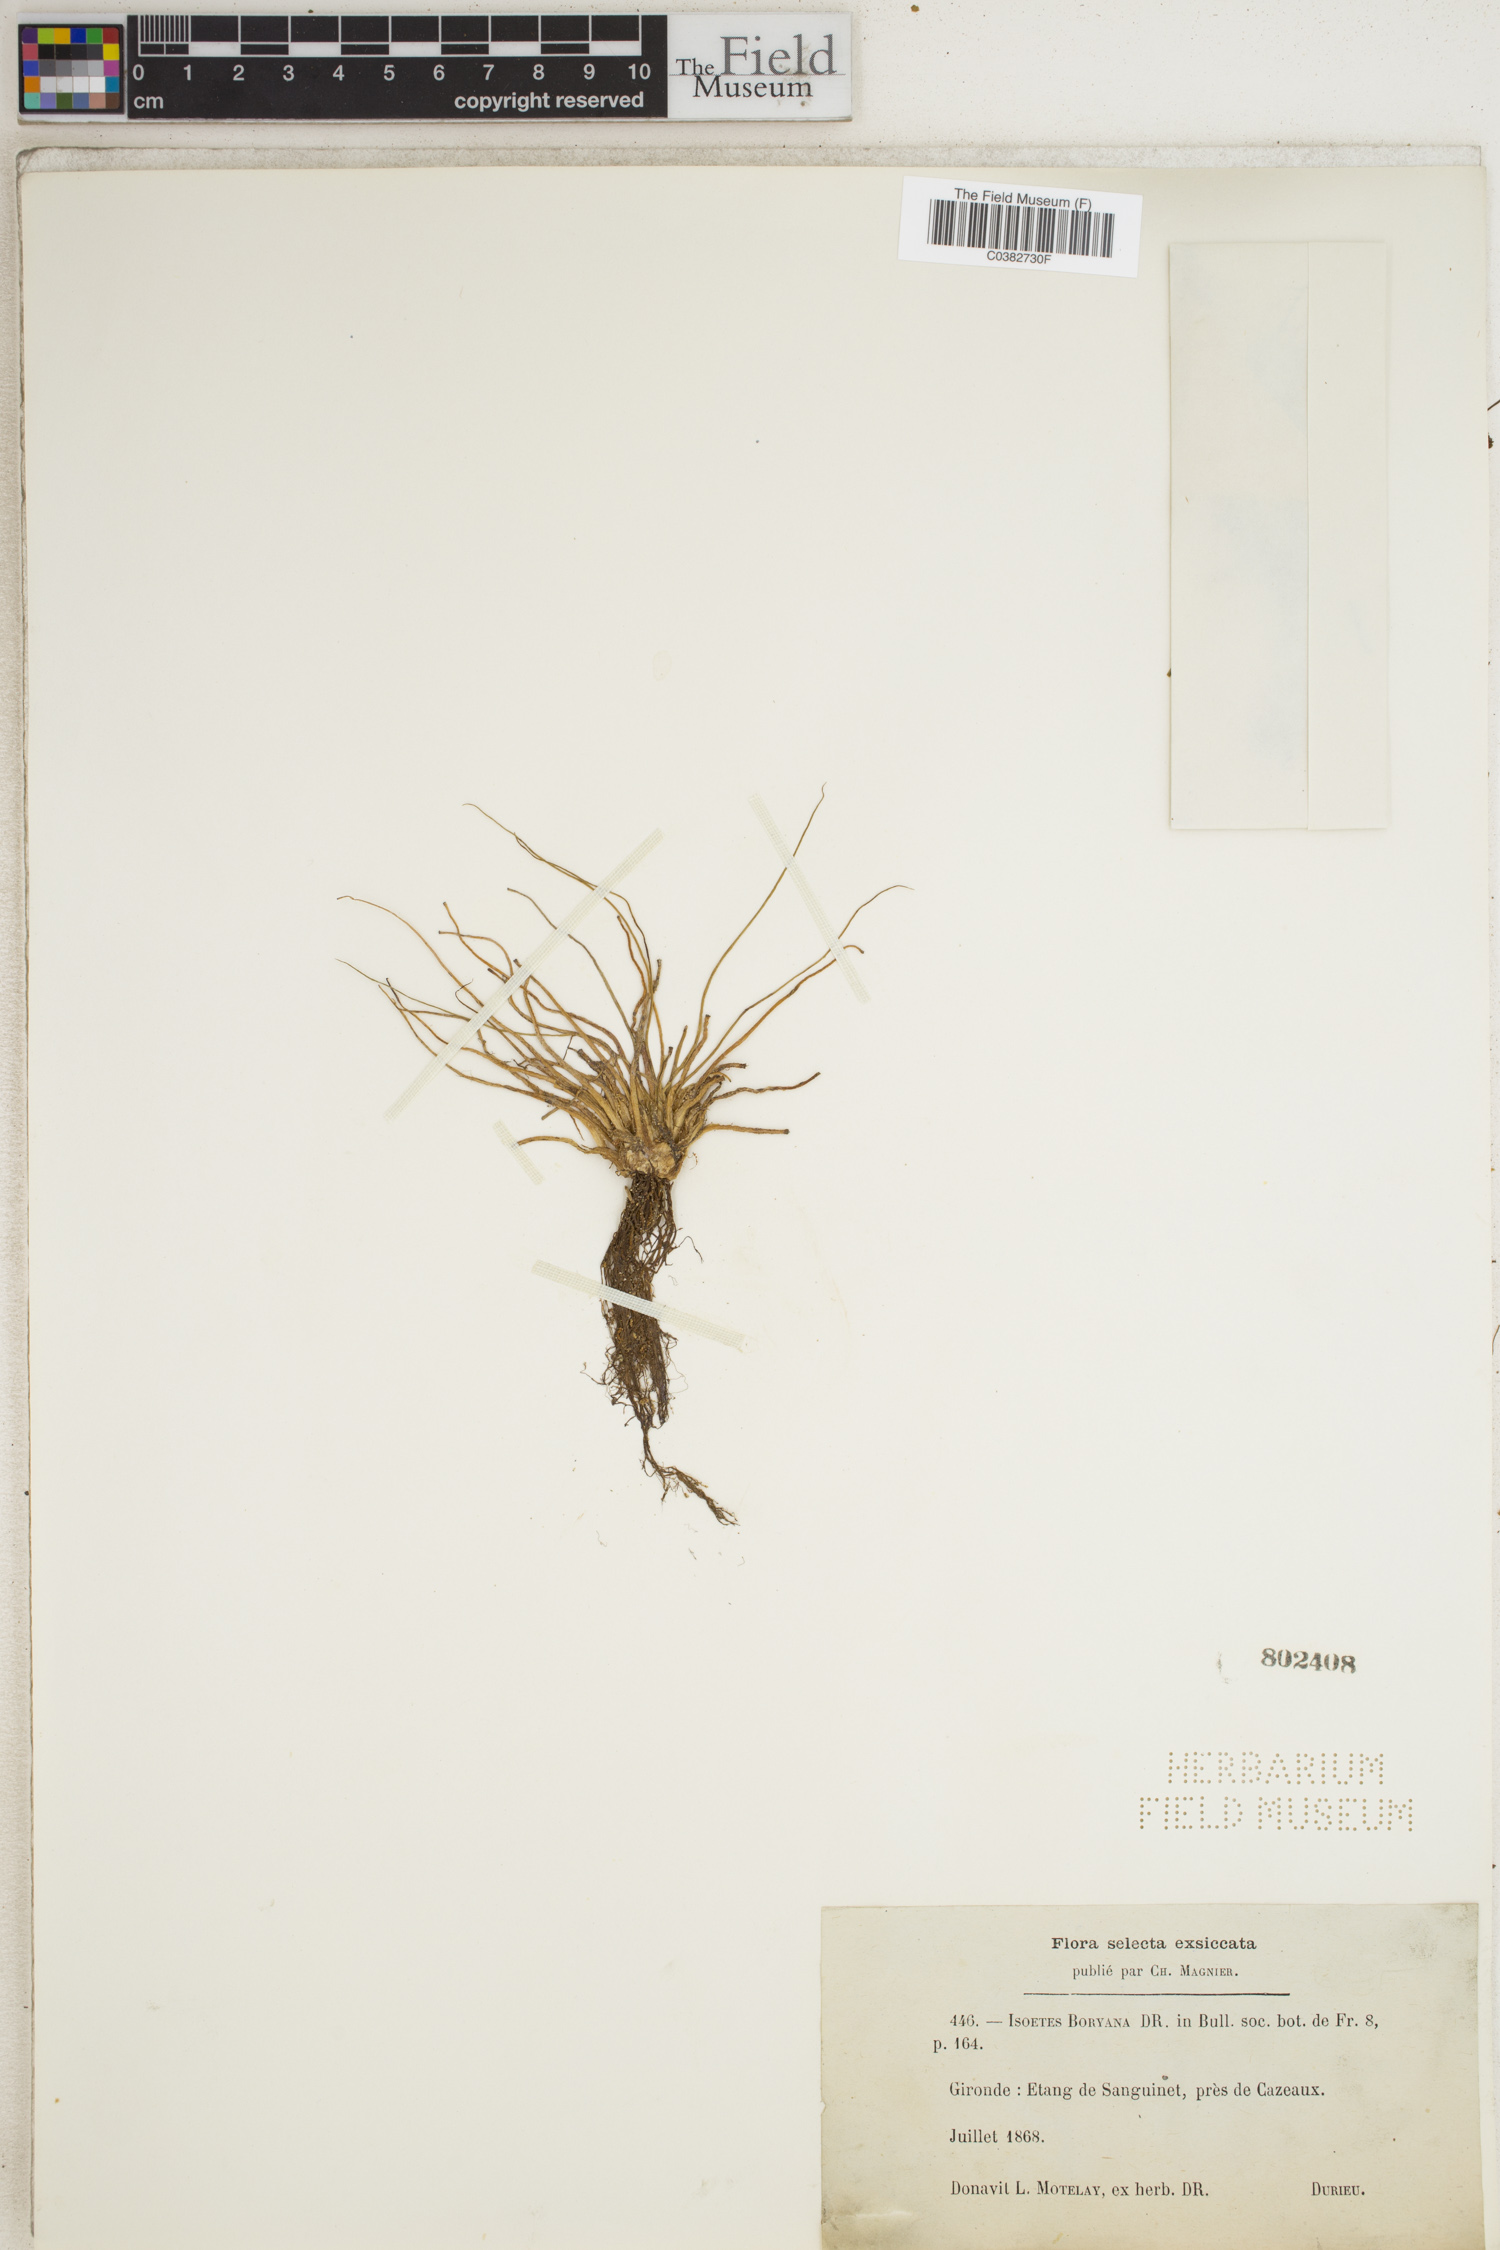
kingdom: Plantae
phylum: Tracheophyta
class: Lycopodiopsida
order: Isoetales
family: Isoetaceae
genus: Isoetes
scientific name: Isoetes boryana
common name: Gascoyne quillwort
